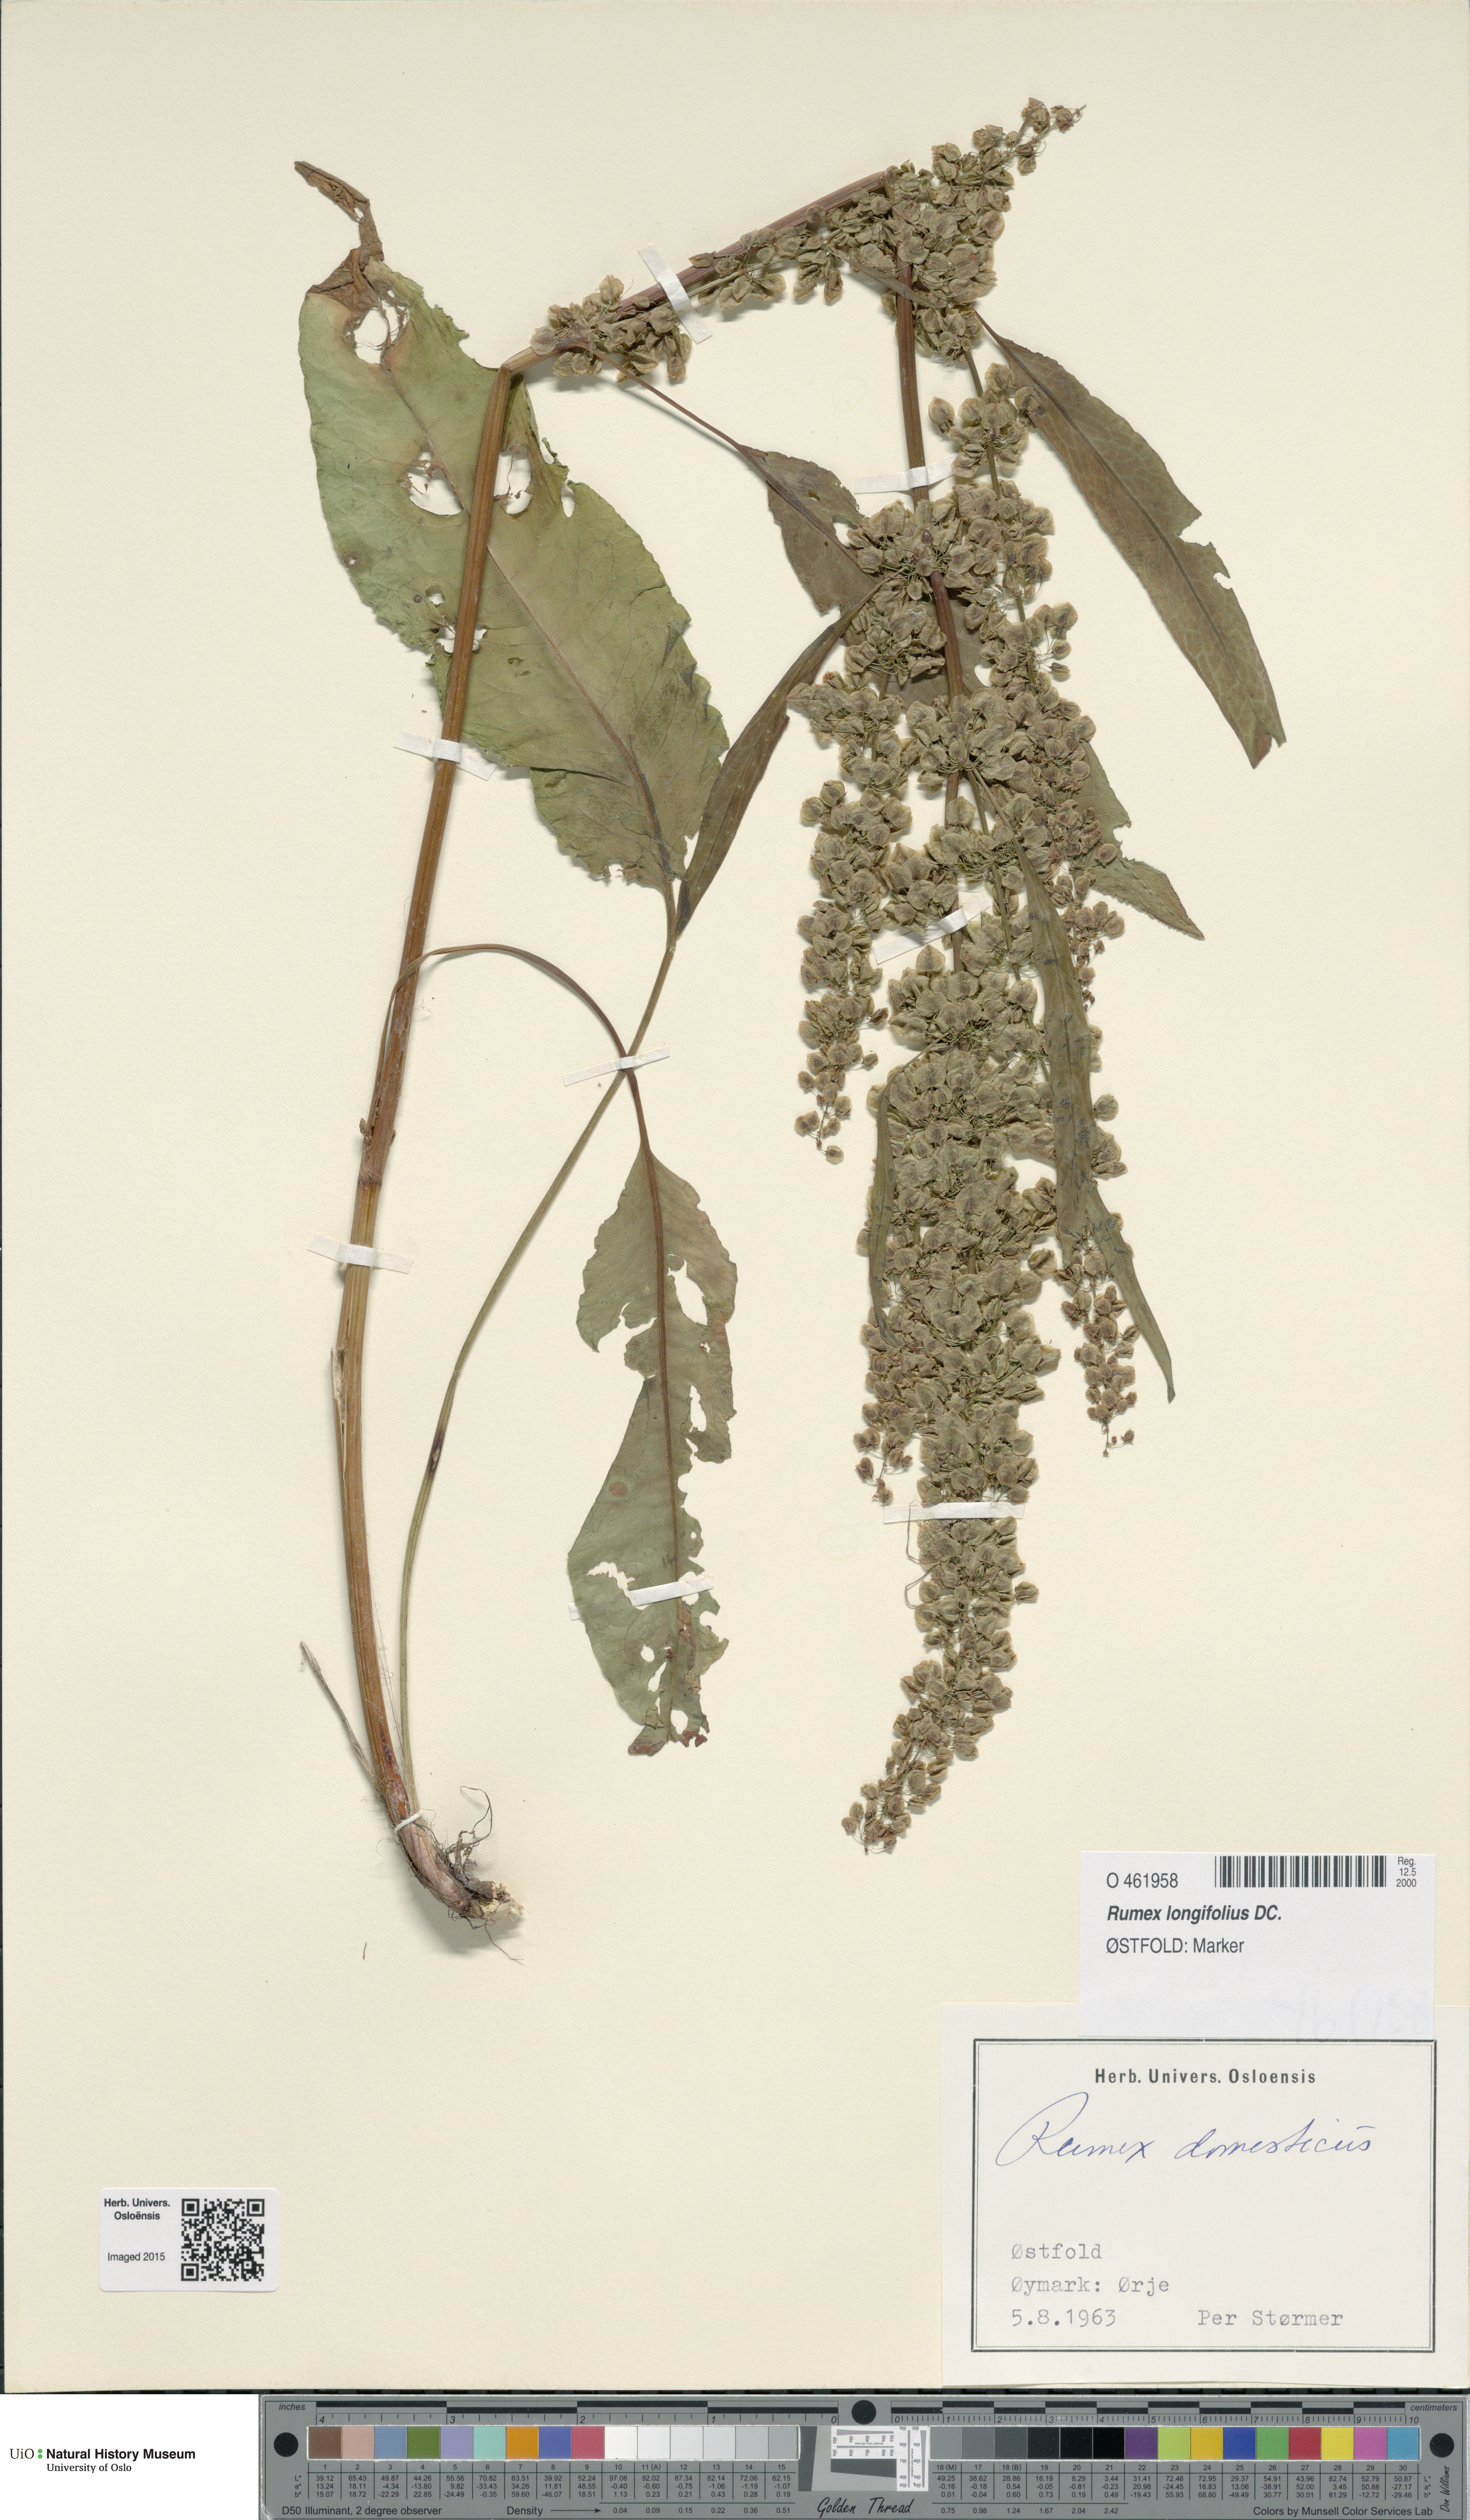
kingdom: Plantae
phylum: Tracheophyta
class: Magnoliopsida
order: Caryophyllales
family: Polygonaceae
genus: Rumex
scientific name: Rumex longifolius
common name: Dooryard dock
